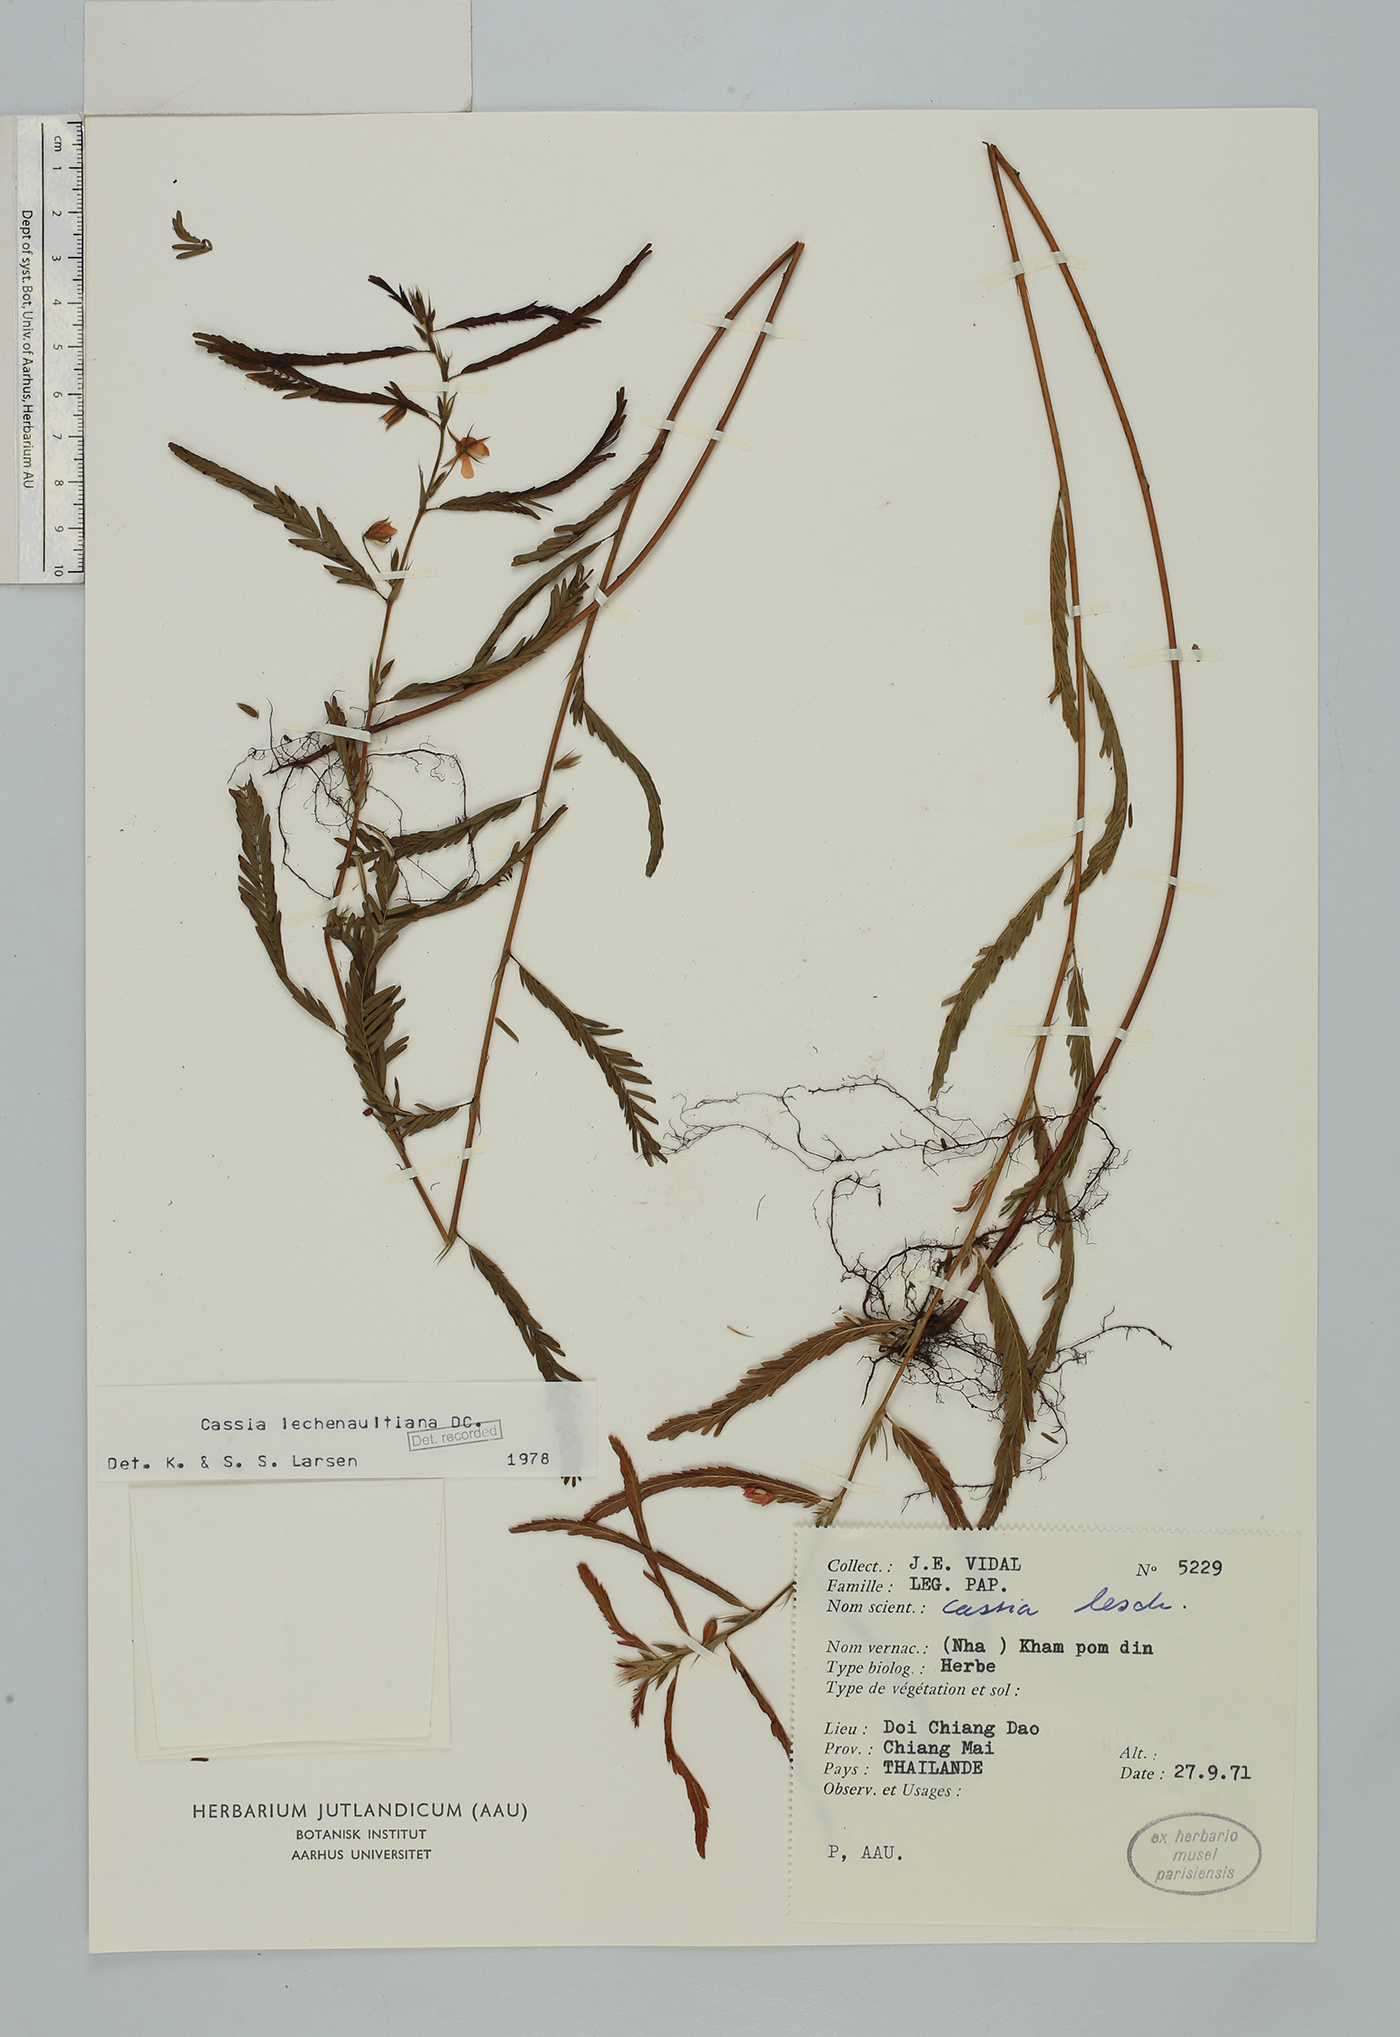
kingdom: Plantae
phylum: Tracheophyta
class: Magnoliopsida
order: Fabales
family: Fabaceae
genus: Chamaecrista
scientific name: Chamaecrista leschenaultiana
